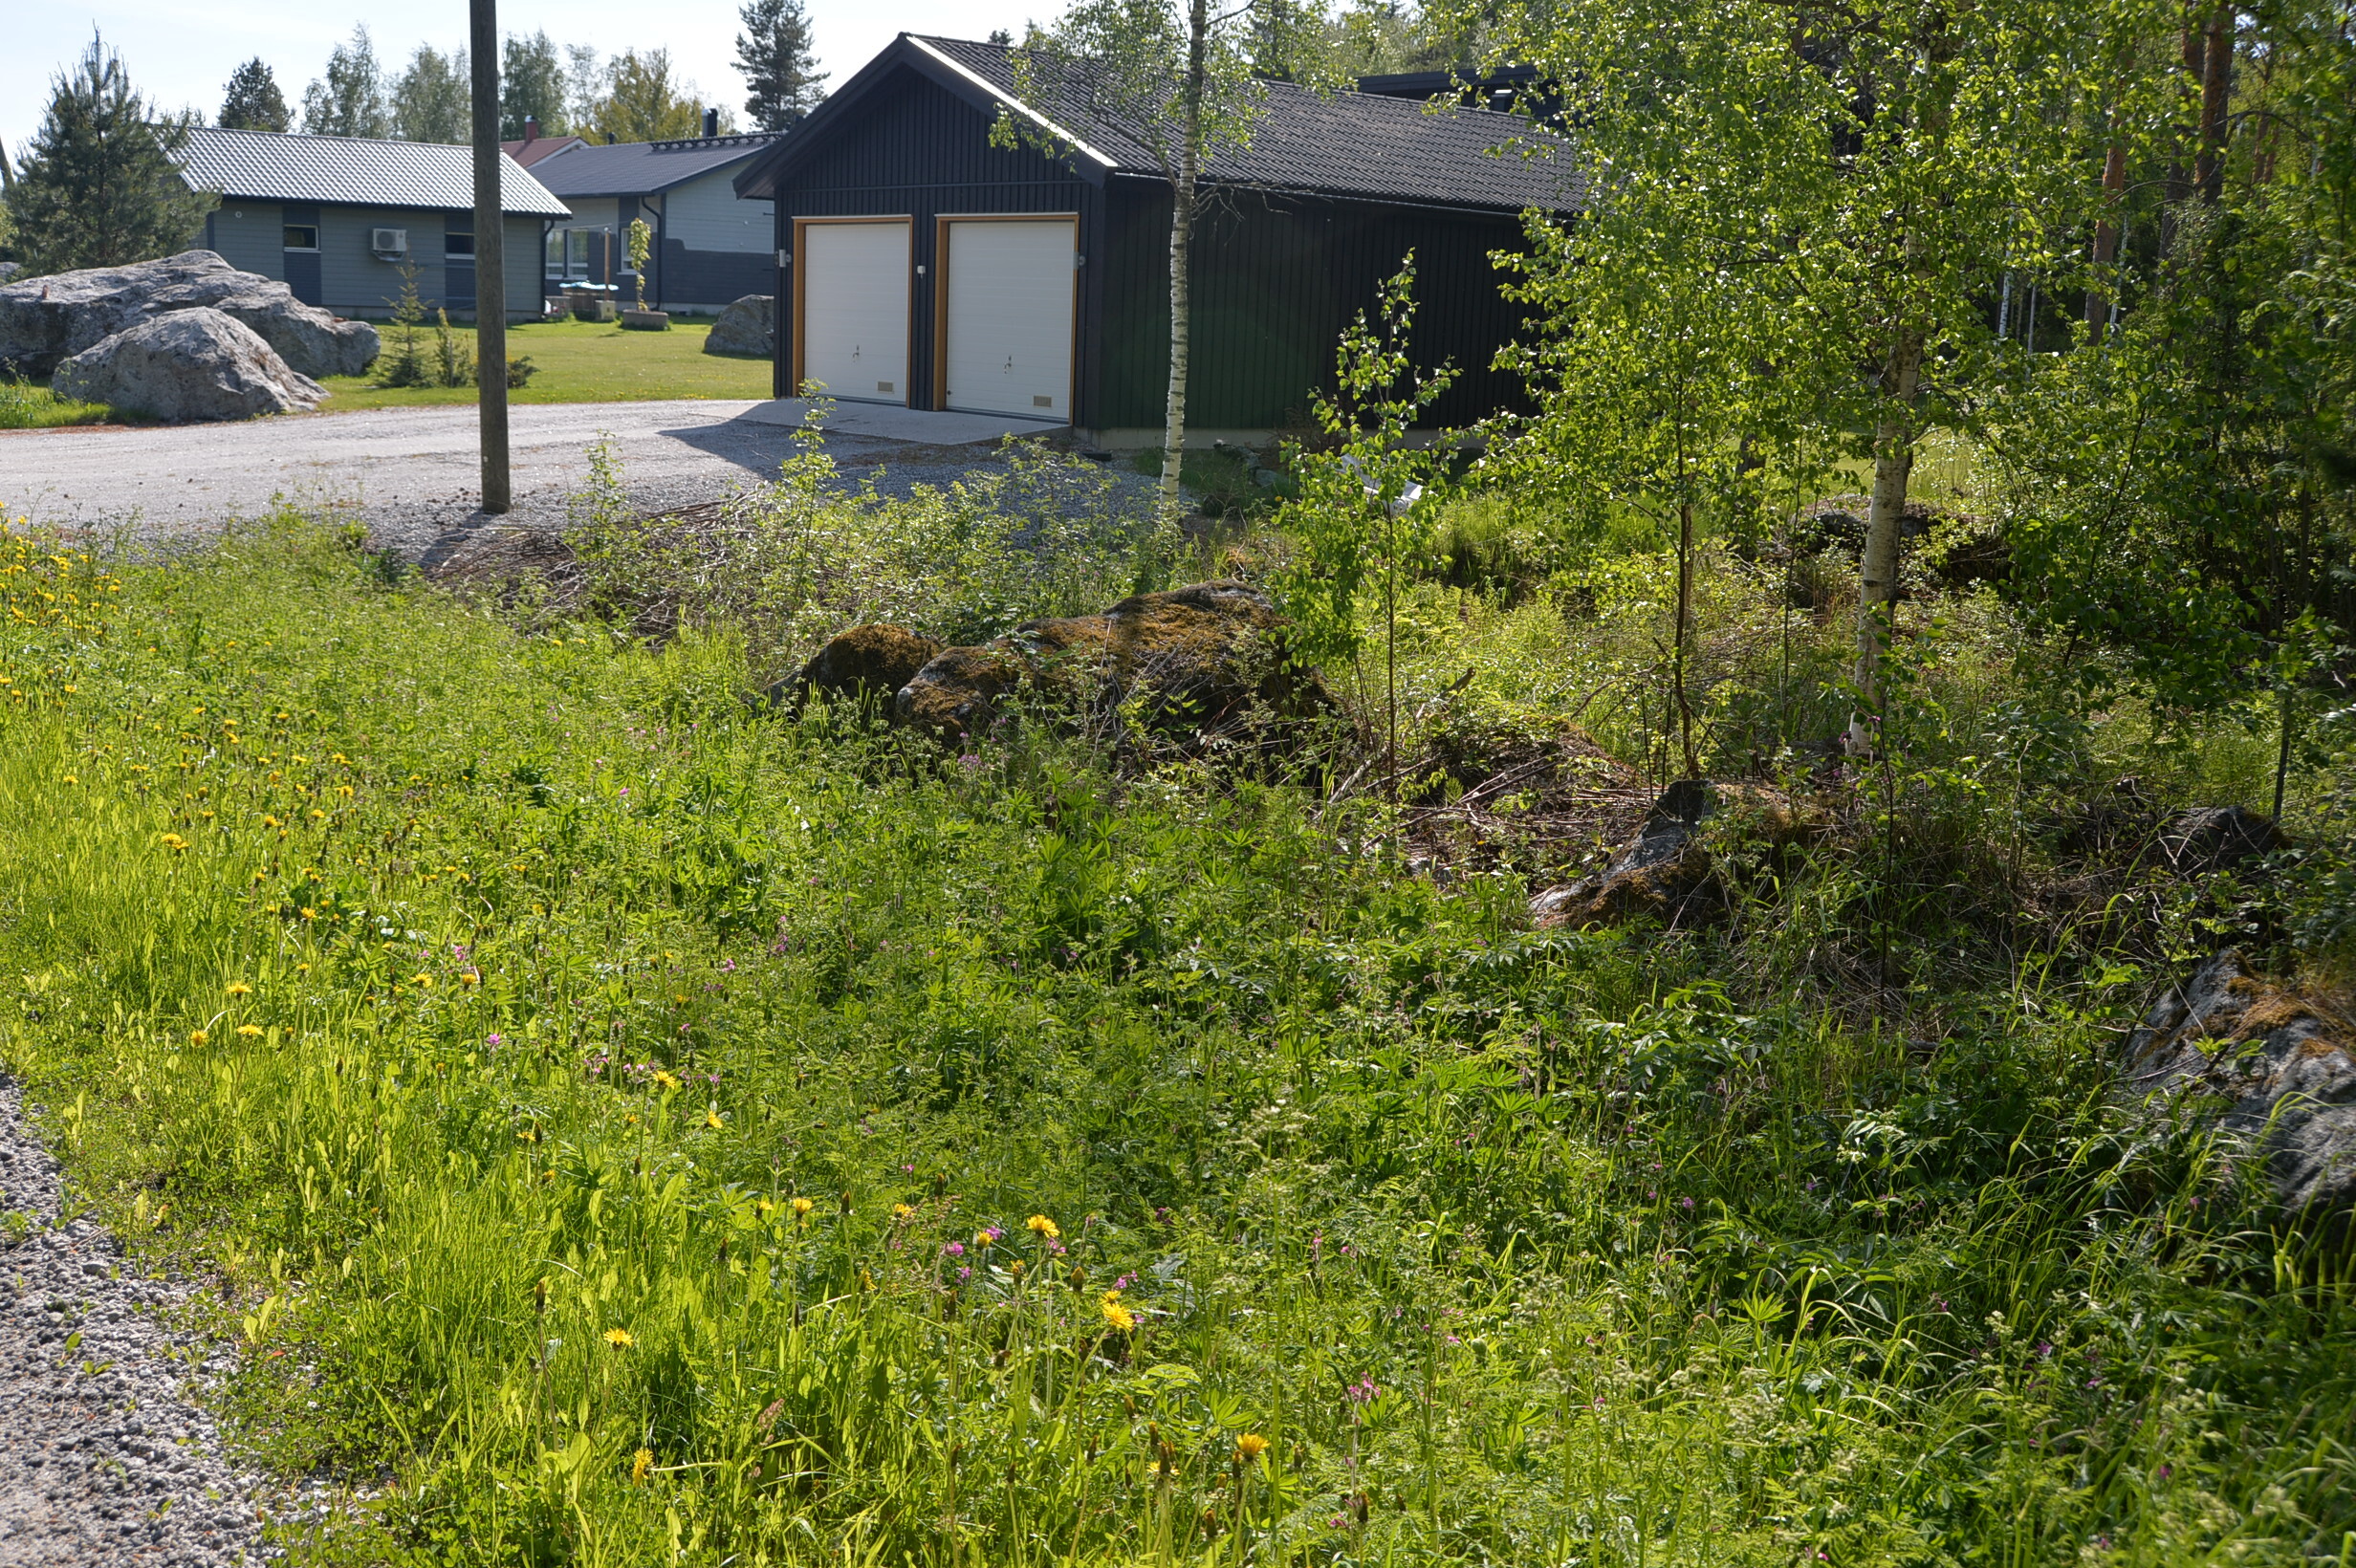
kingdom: Plantae
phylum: Tracheophyta
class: Magnoliopsida
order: Fabales
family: Fabaceae
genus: Lupinus
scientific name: Lupinus polyphyllus
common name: Garden lupin
